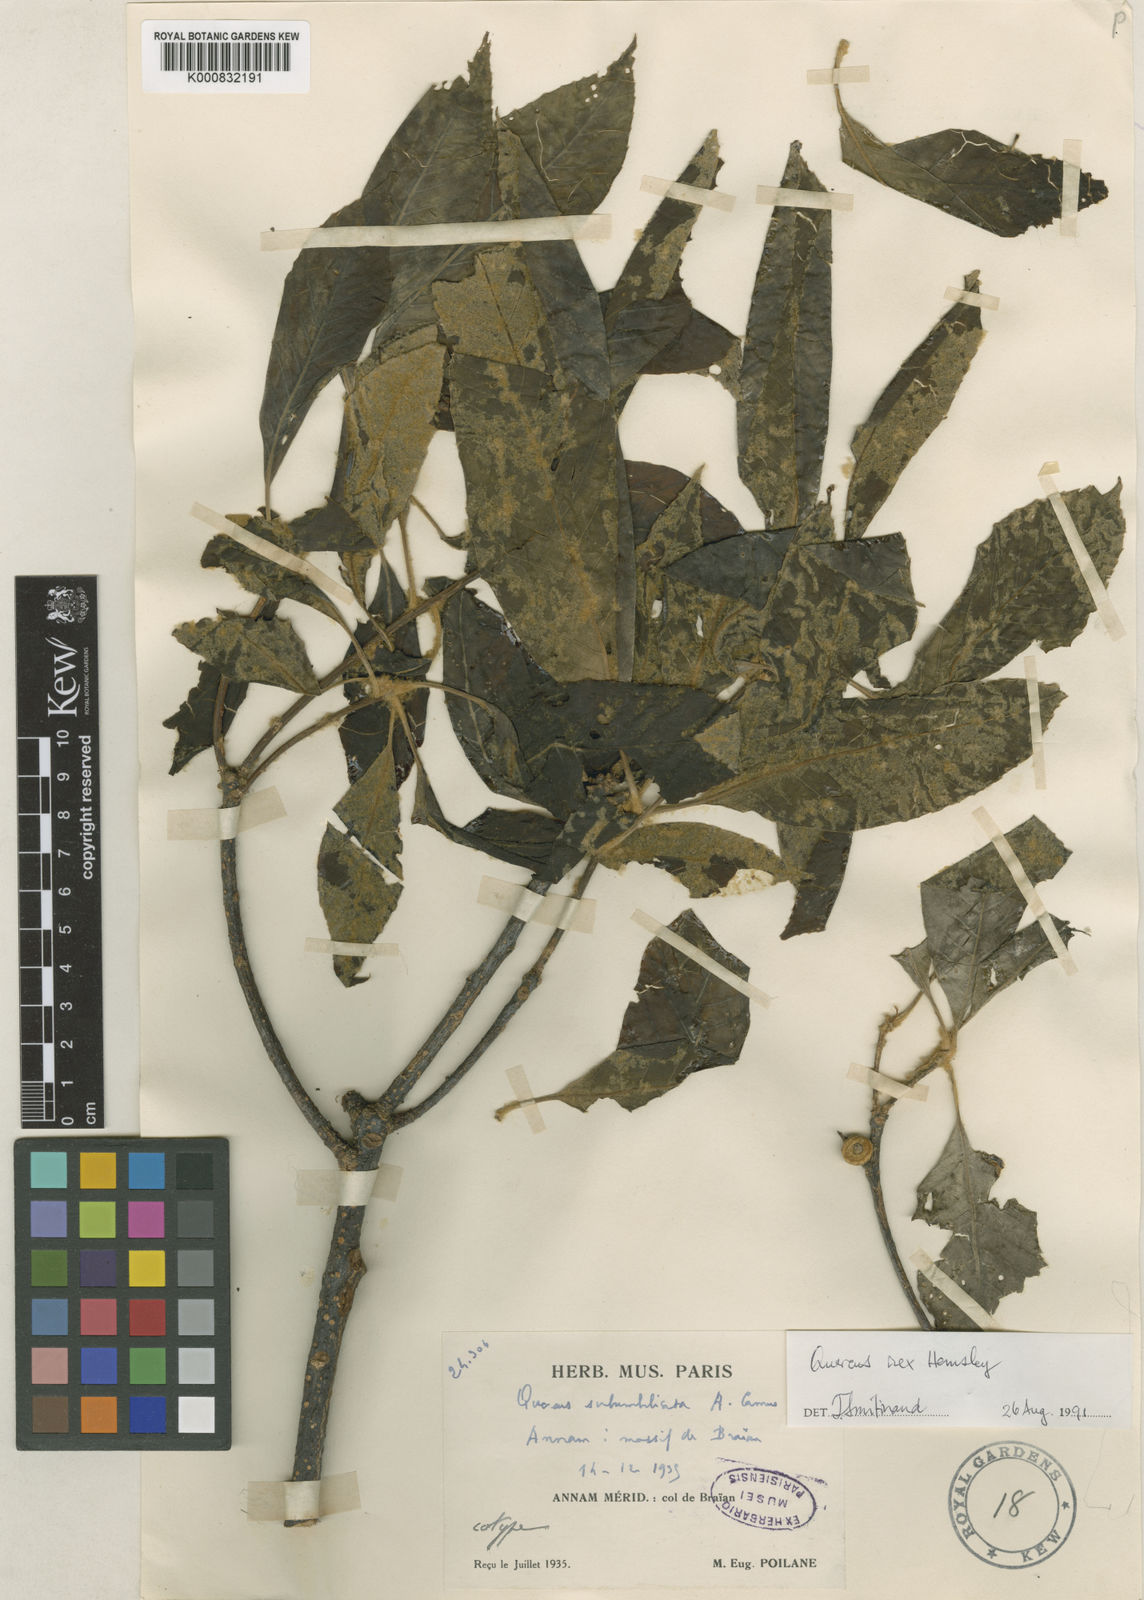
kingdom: Plantae
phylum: Tracheophyta
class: Magnoliopsida
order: Fagales
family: Fagaceae
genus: Quercus
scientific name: Quercus rex
